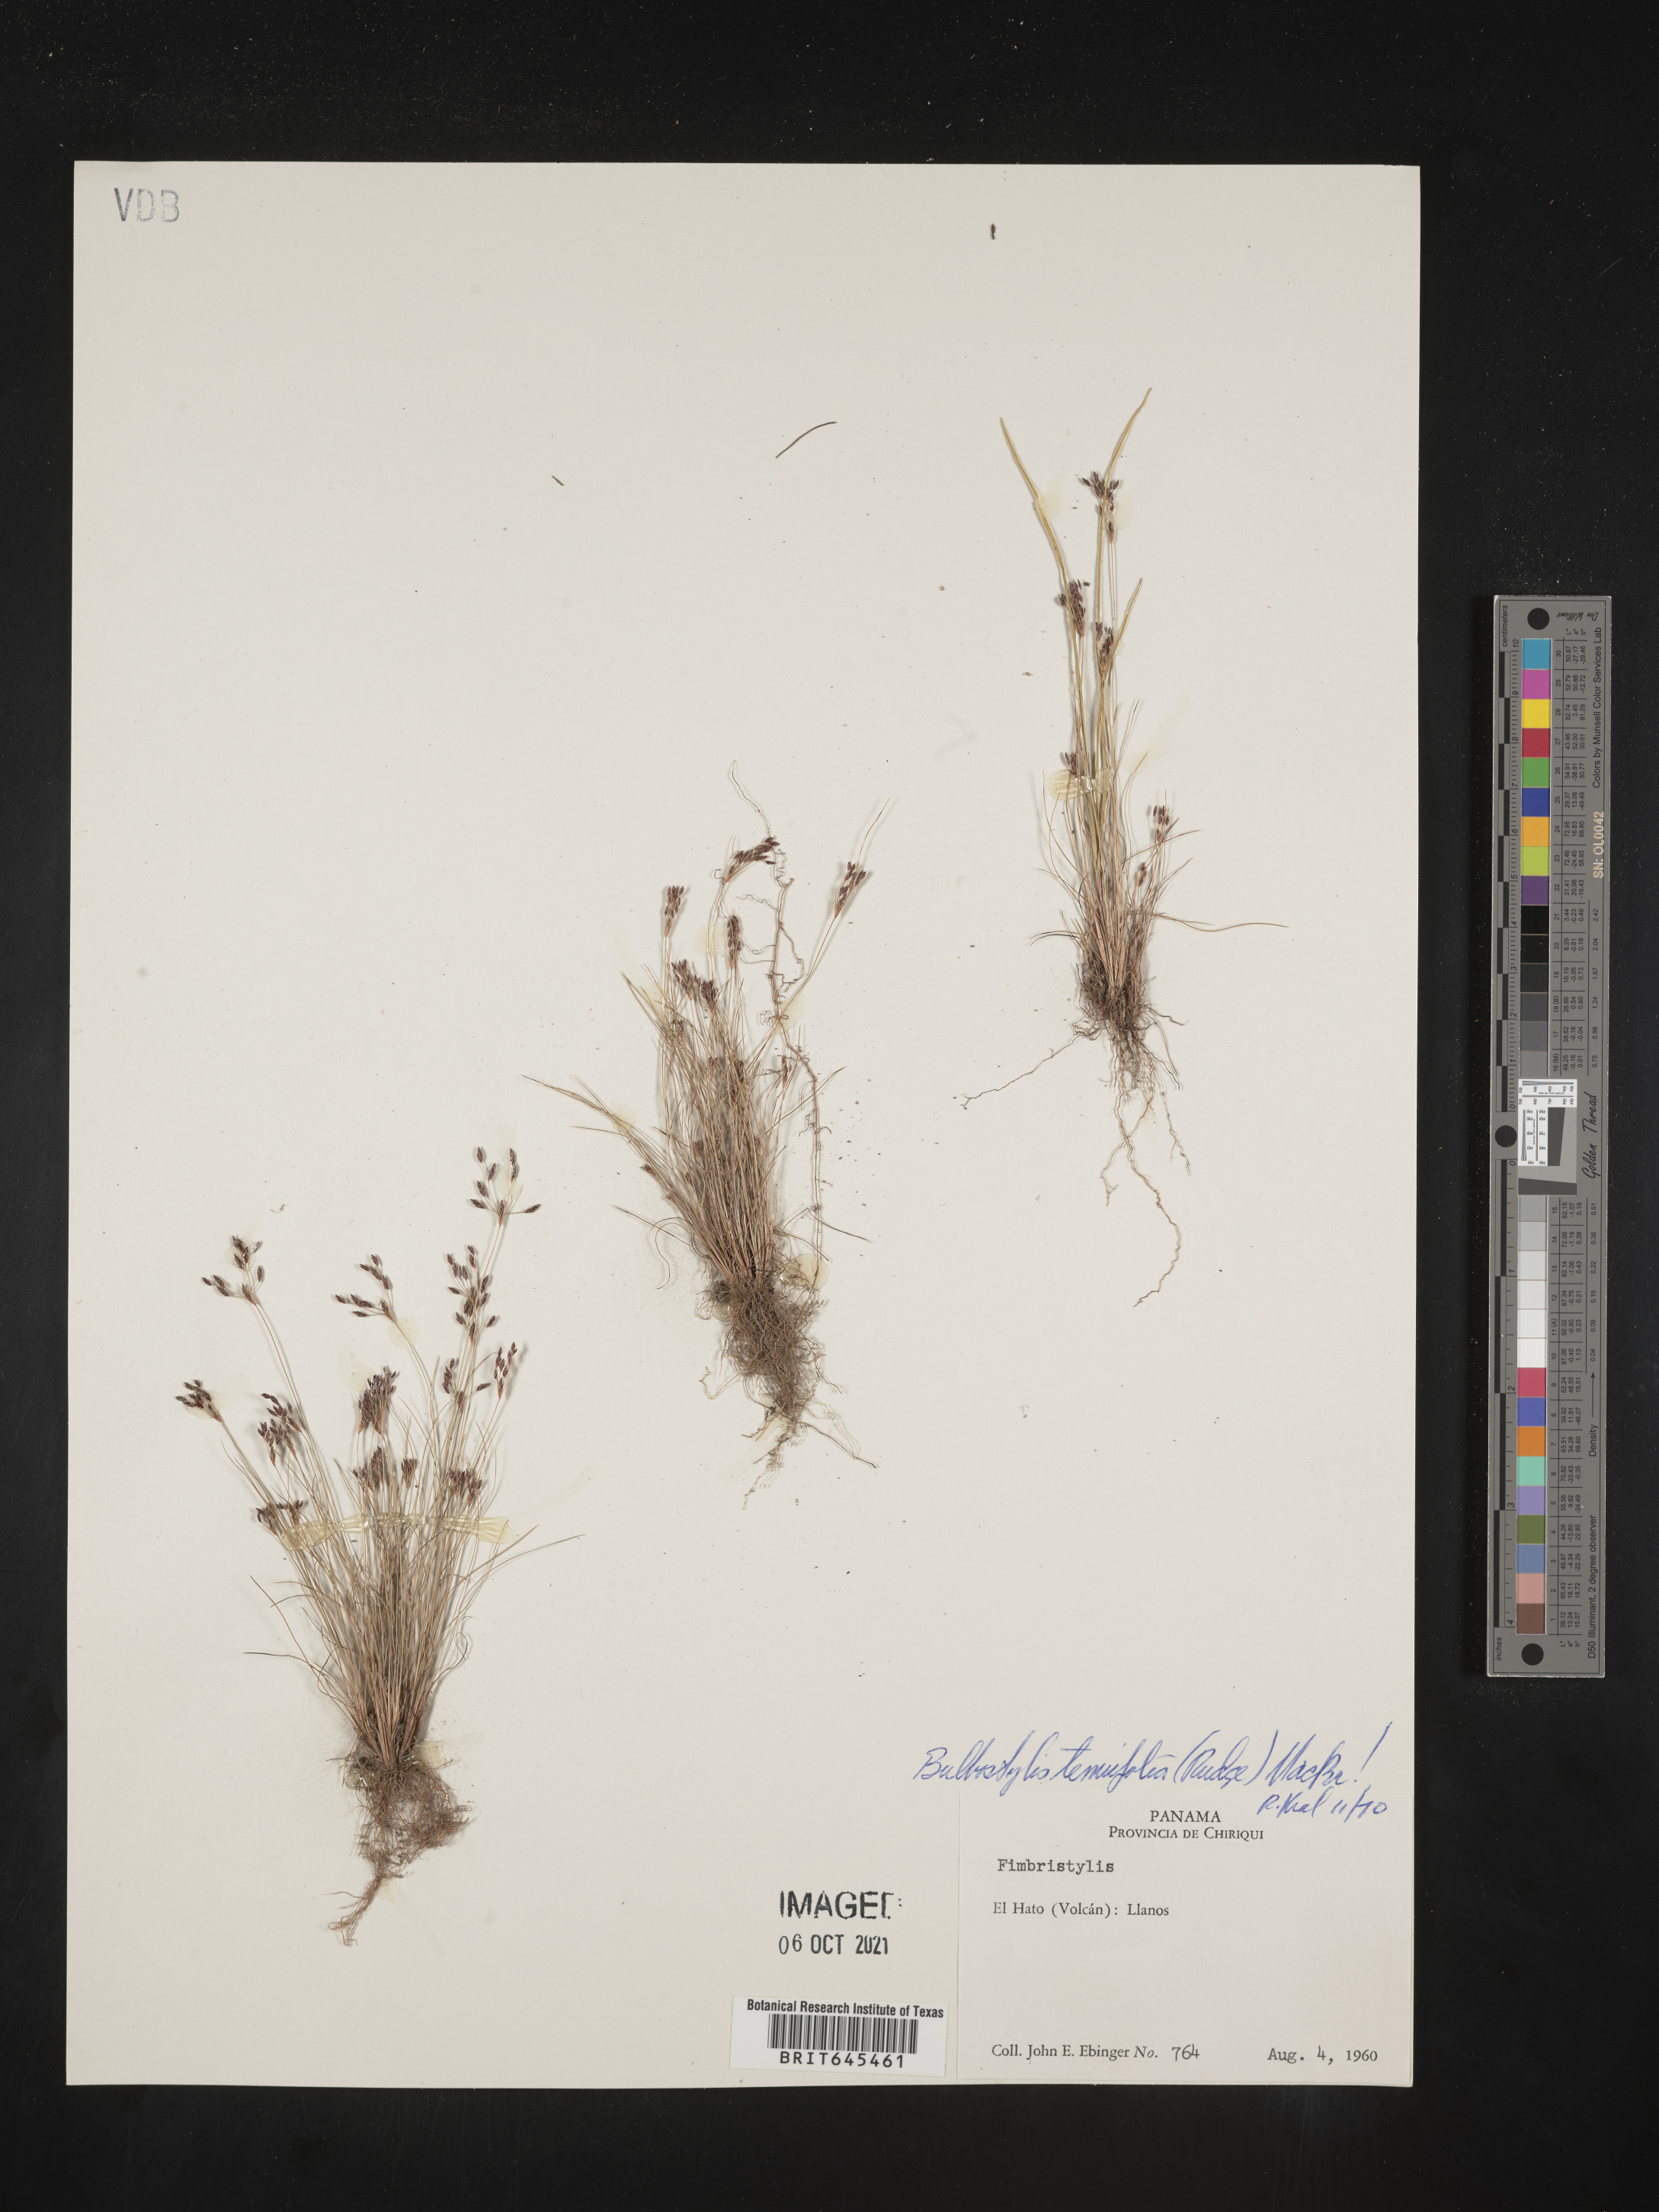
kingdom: Plantae
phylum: Tracheophyta
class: Liliopsida
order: Poales
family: Cyperaceae
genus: Eleocharis
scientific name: Eleocharis Bulbostylis tenuifolia
